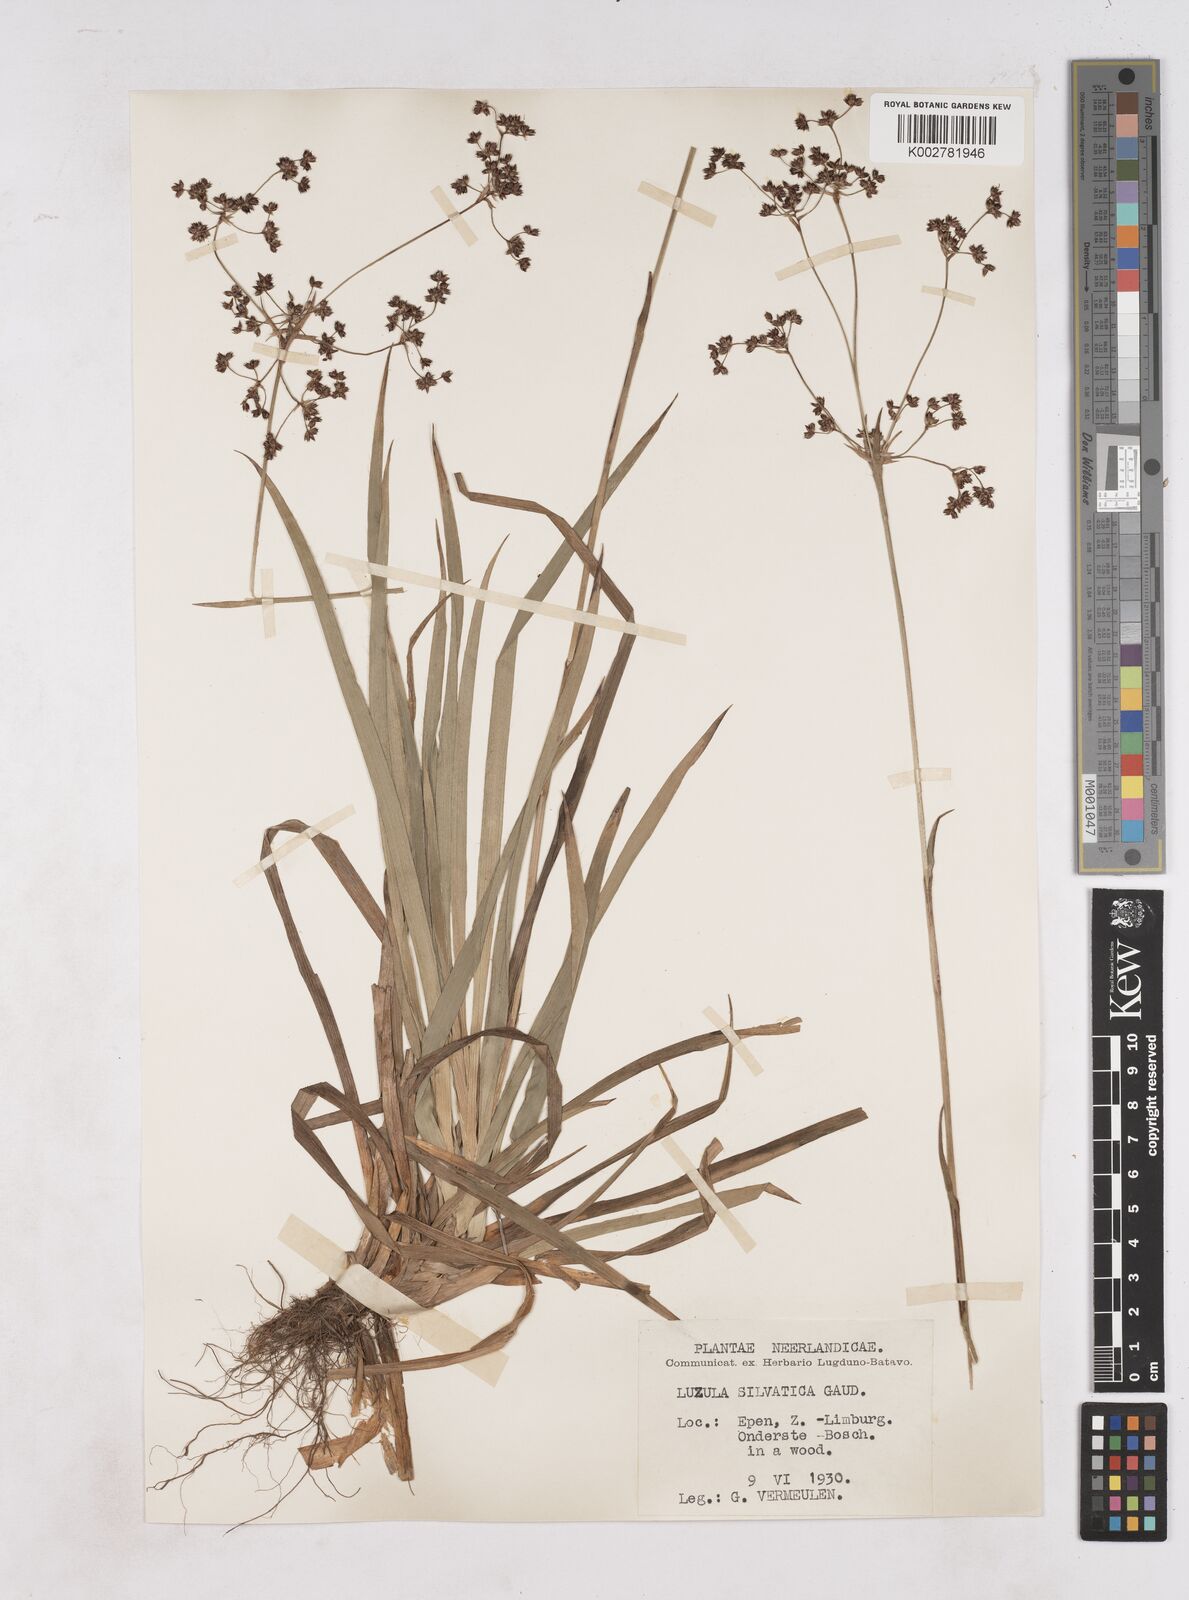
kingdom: Plantae
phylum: Tracheophyta
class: Liliopsida
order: Poales
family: Juncaceae
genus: Luzula
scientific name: Luzula sylvatica
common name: Great wood-rush
